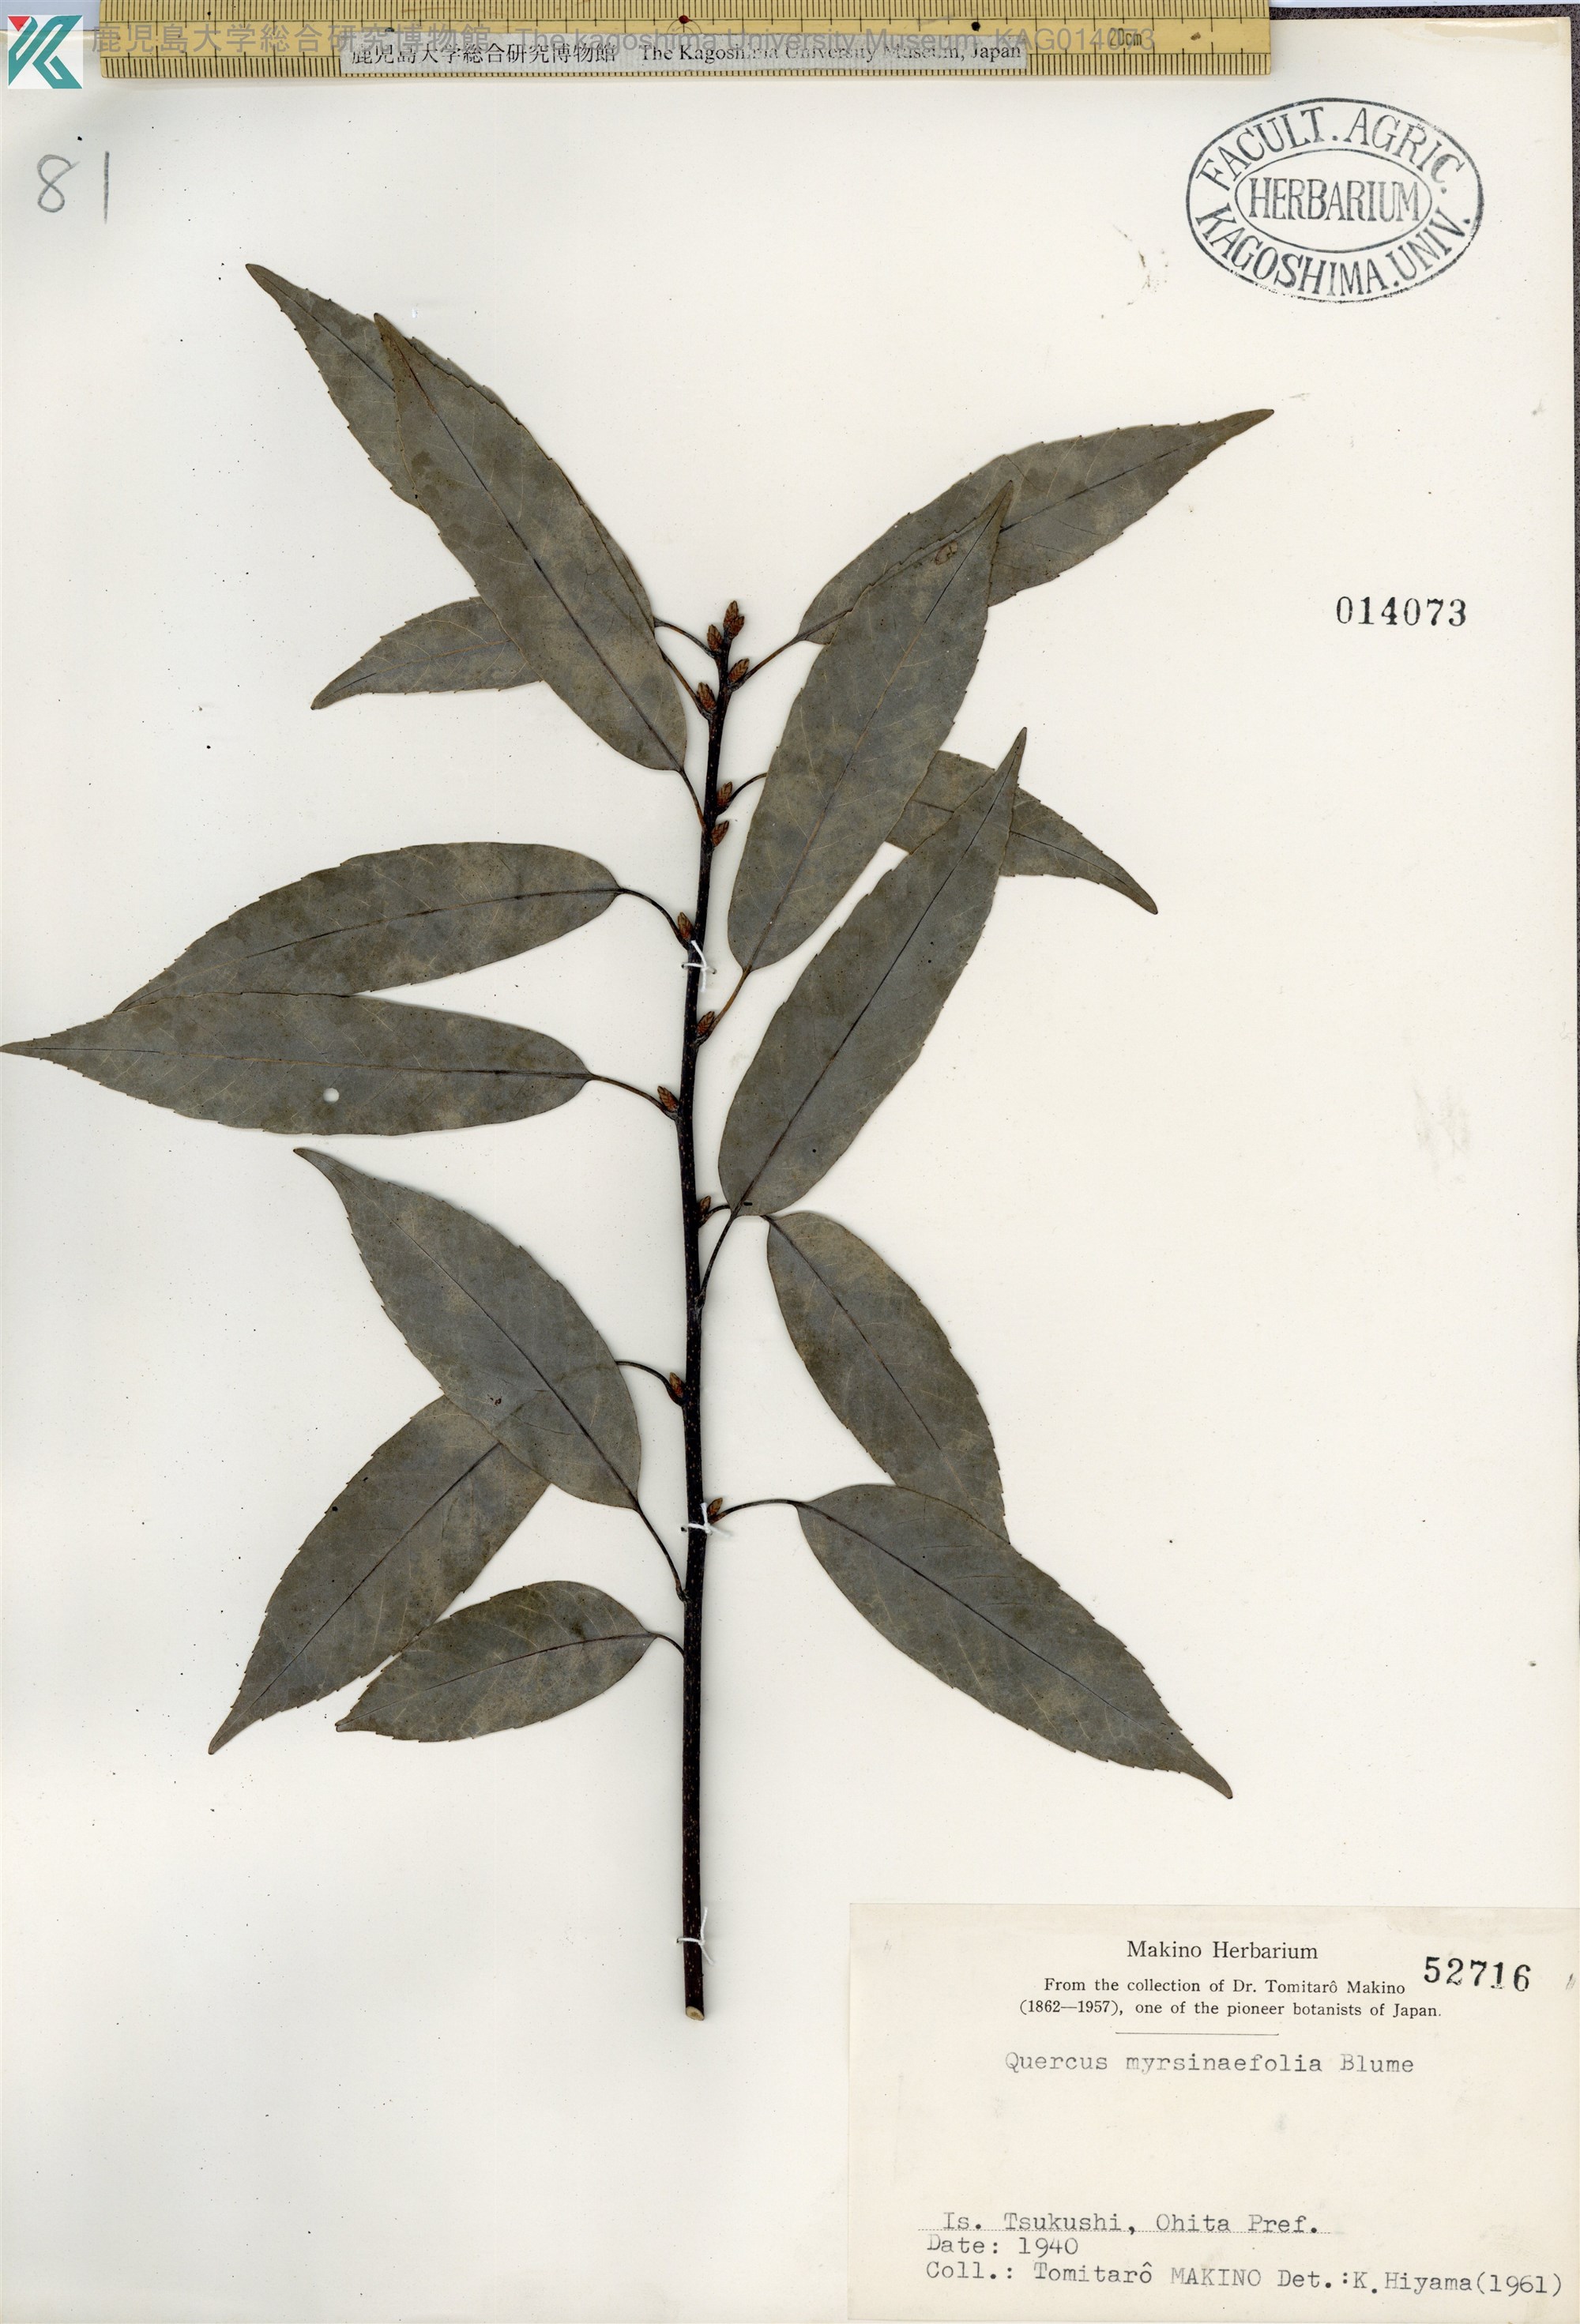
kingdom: Plantae
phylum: Tracheophyta
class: Magnoliopsida
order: Fagales
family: Fagaceae
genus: Quercus
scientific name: Quercus myrsinaefolia
